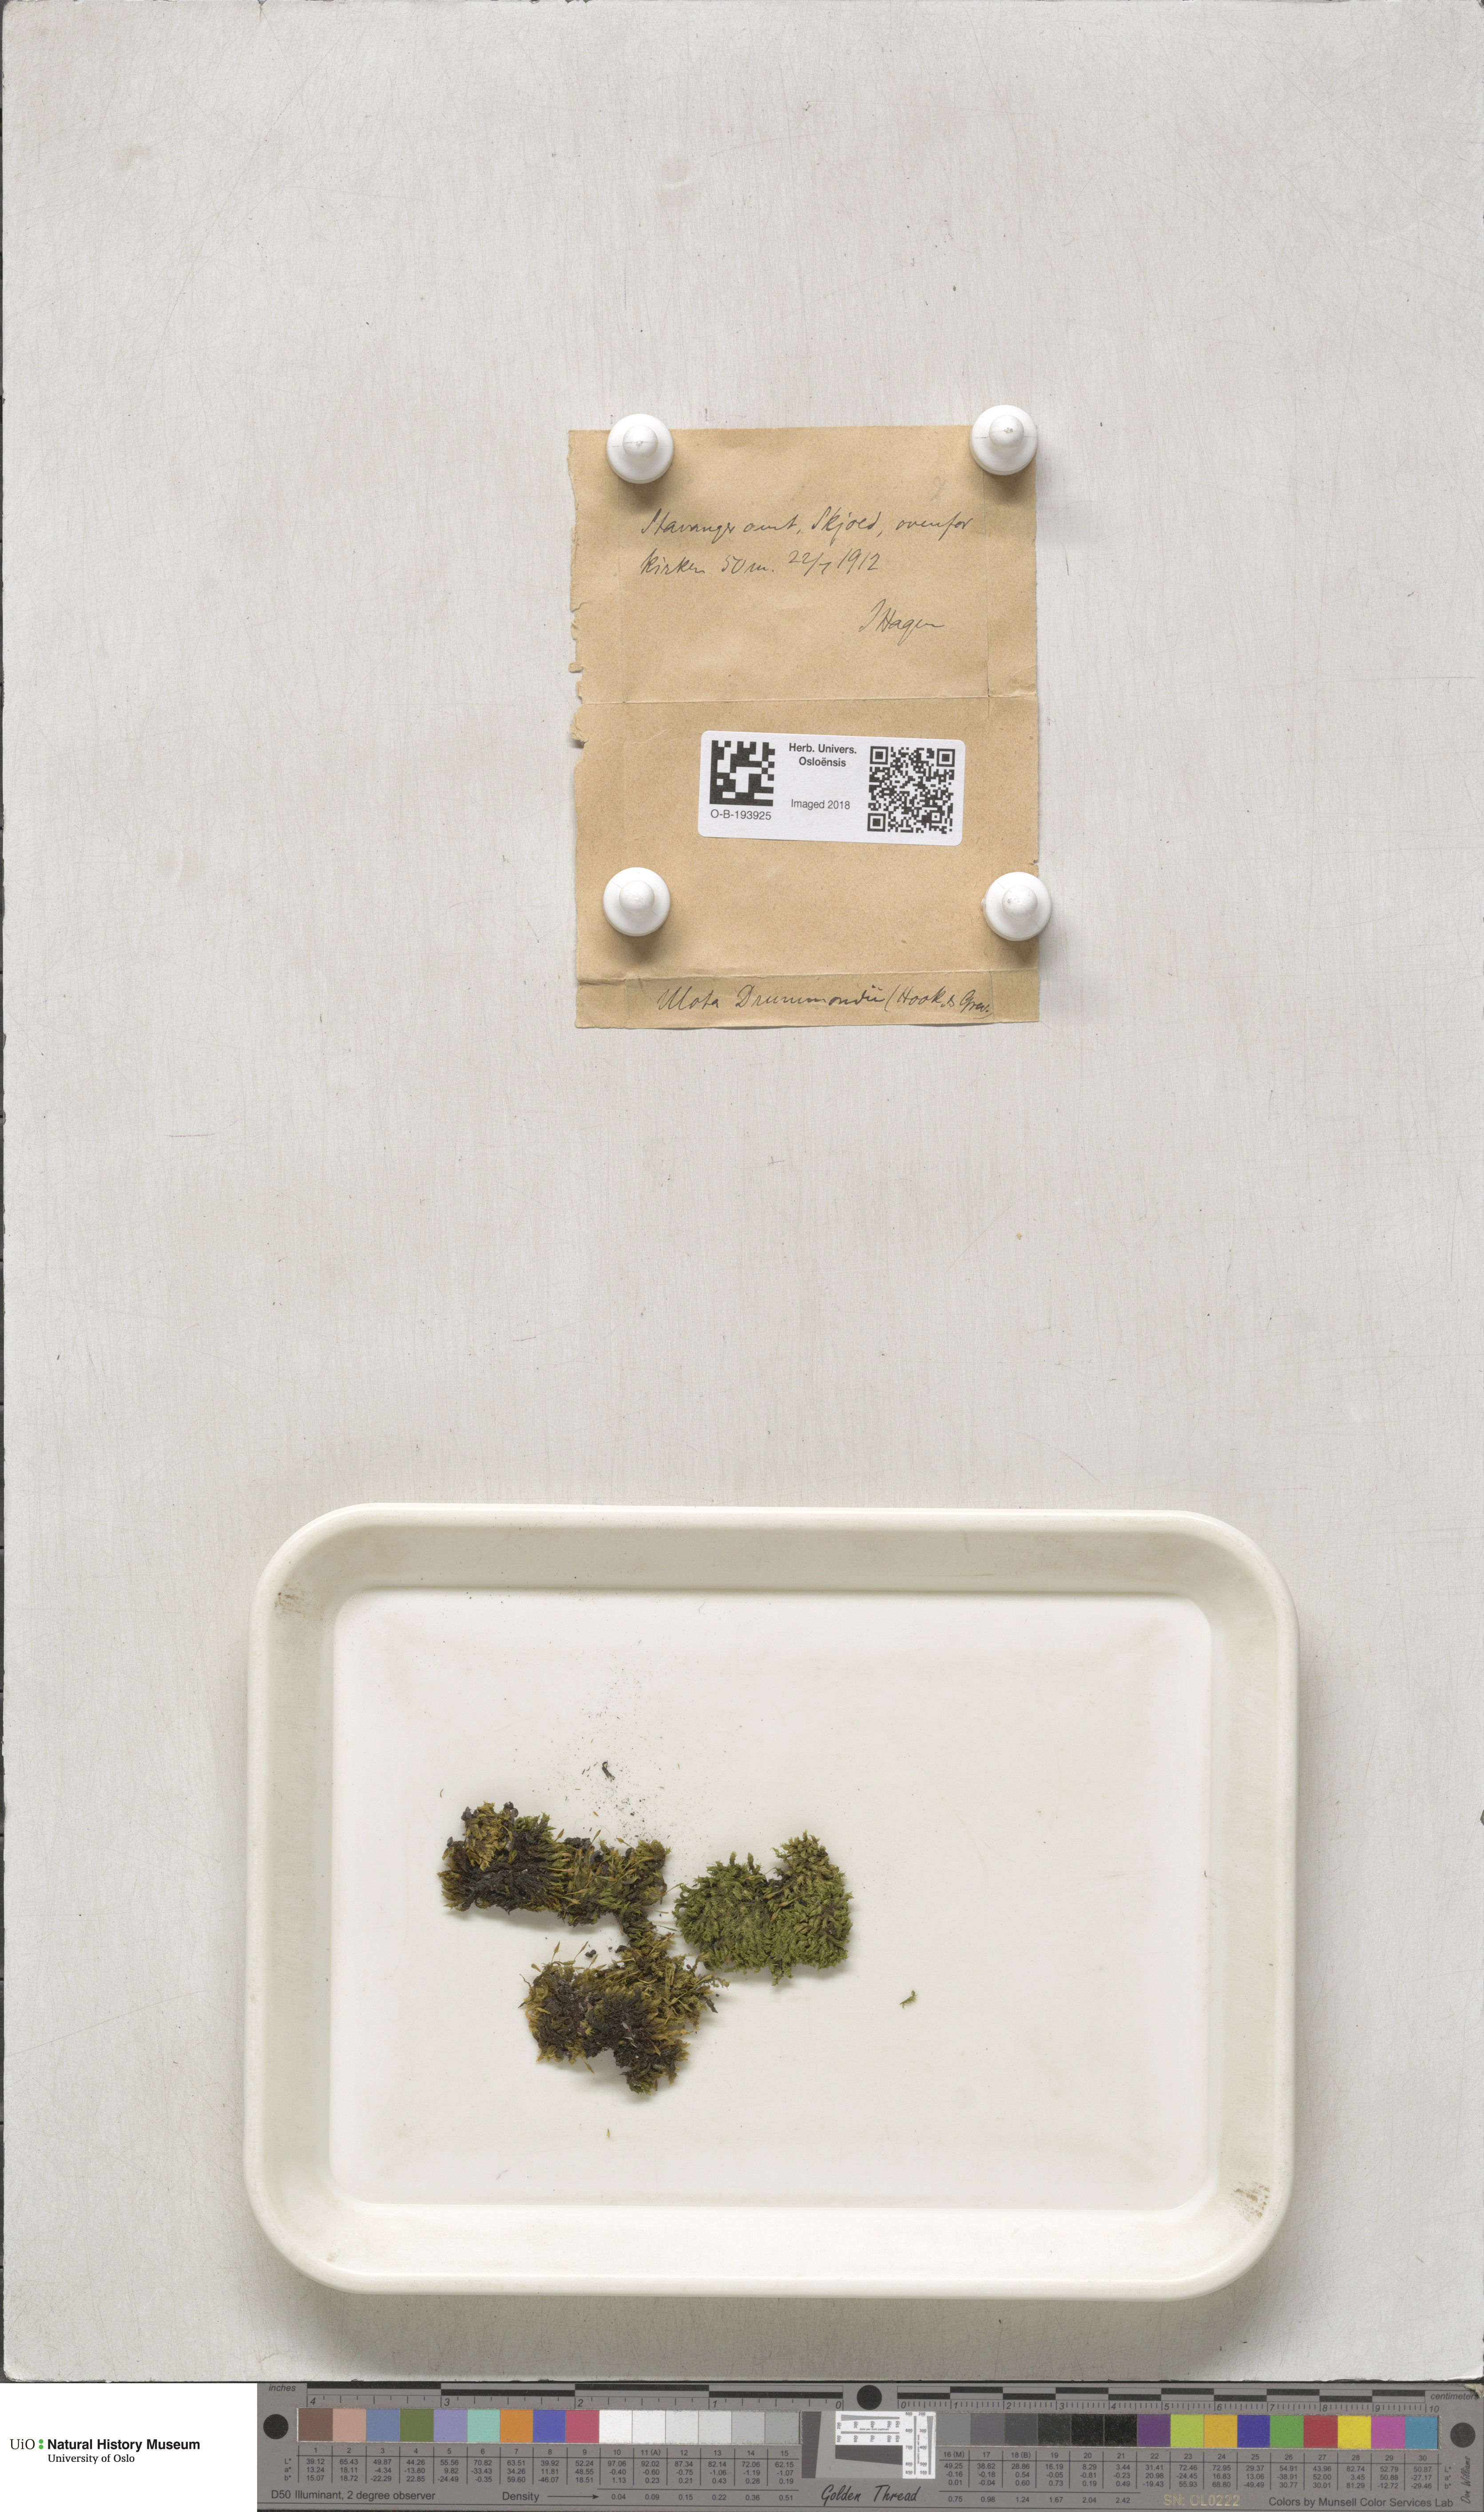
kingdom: Plantae
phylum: Bryophyta
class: Bryopsida
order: Orthotrichales
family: Orthotrichaceae
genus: Ulota
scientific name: Ulota drummondii
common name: Drummond's pincushion moss
